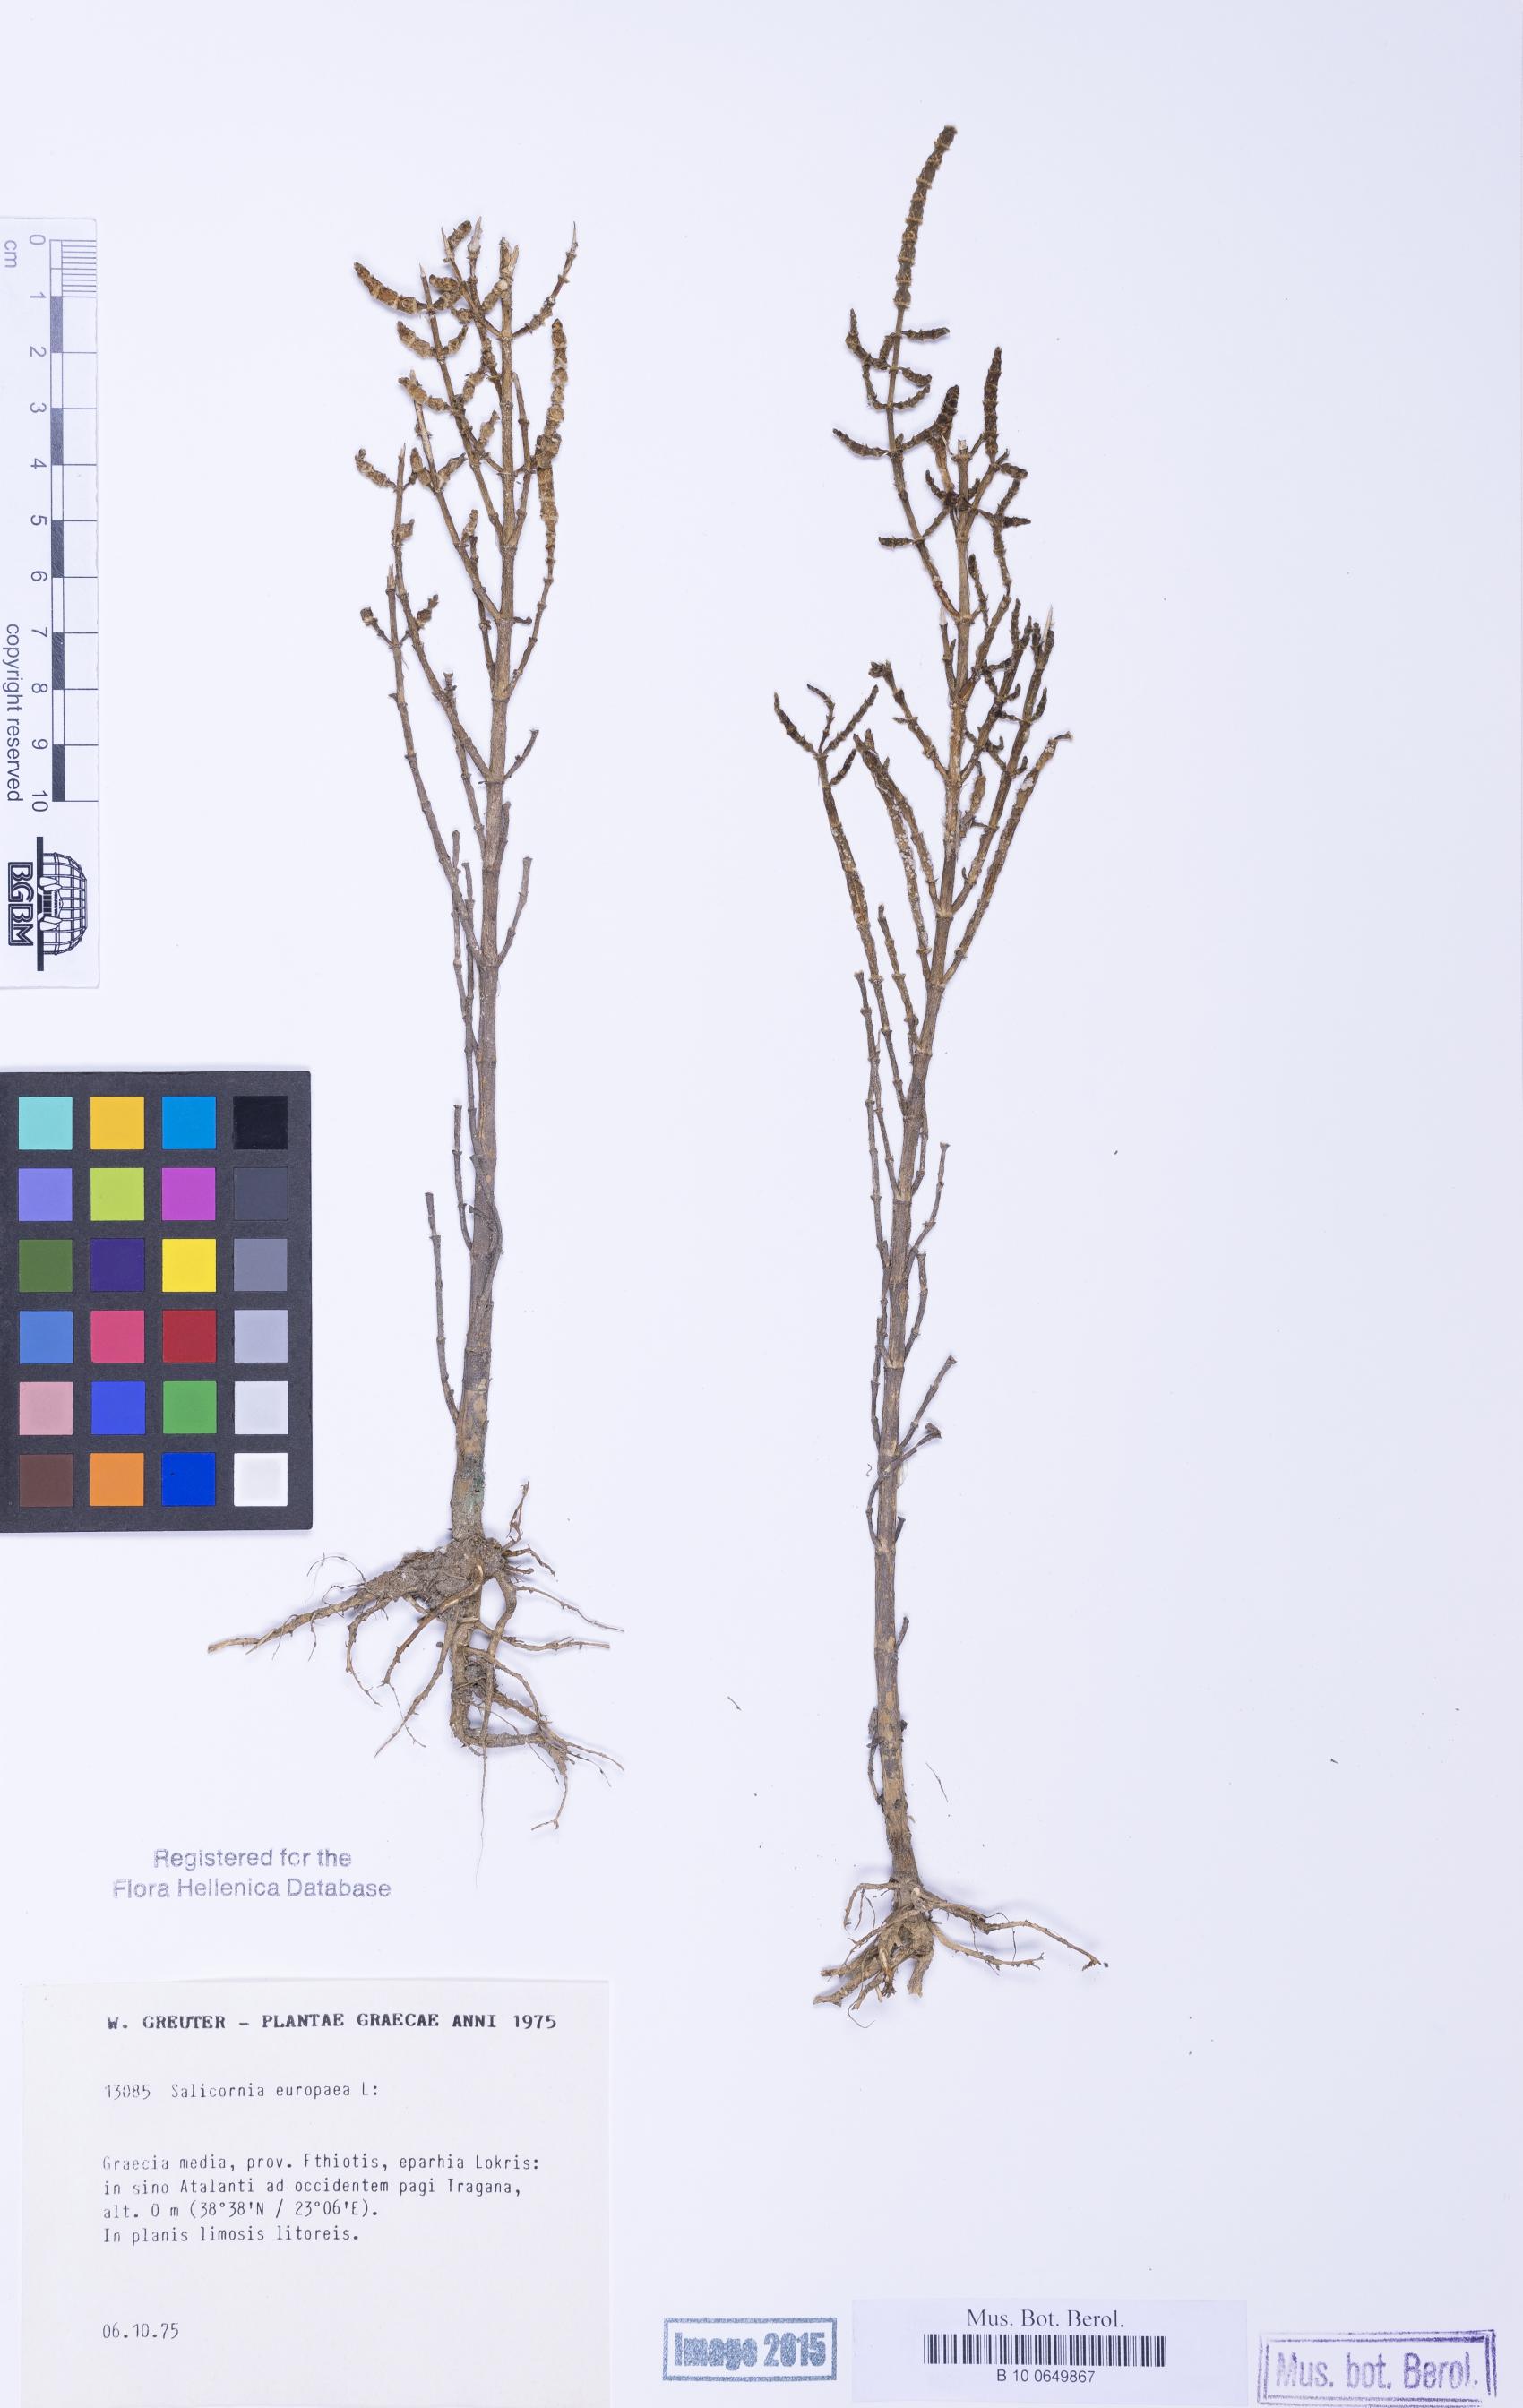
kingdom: Plantae
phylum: Tracheophyta
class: Magnoliopsida
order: Caryophyllales
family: Amaranthaceae
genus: Salicornia
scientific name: Salicornia procumbens
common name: Long-spiked glasswort
